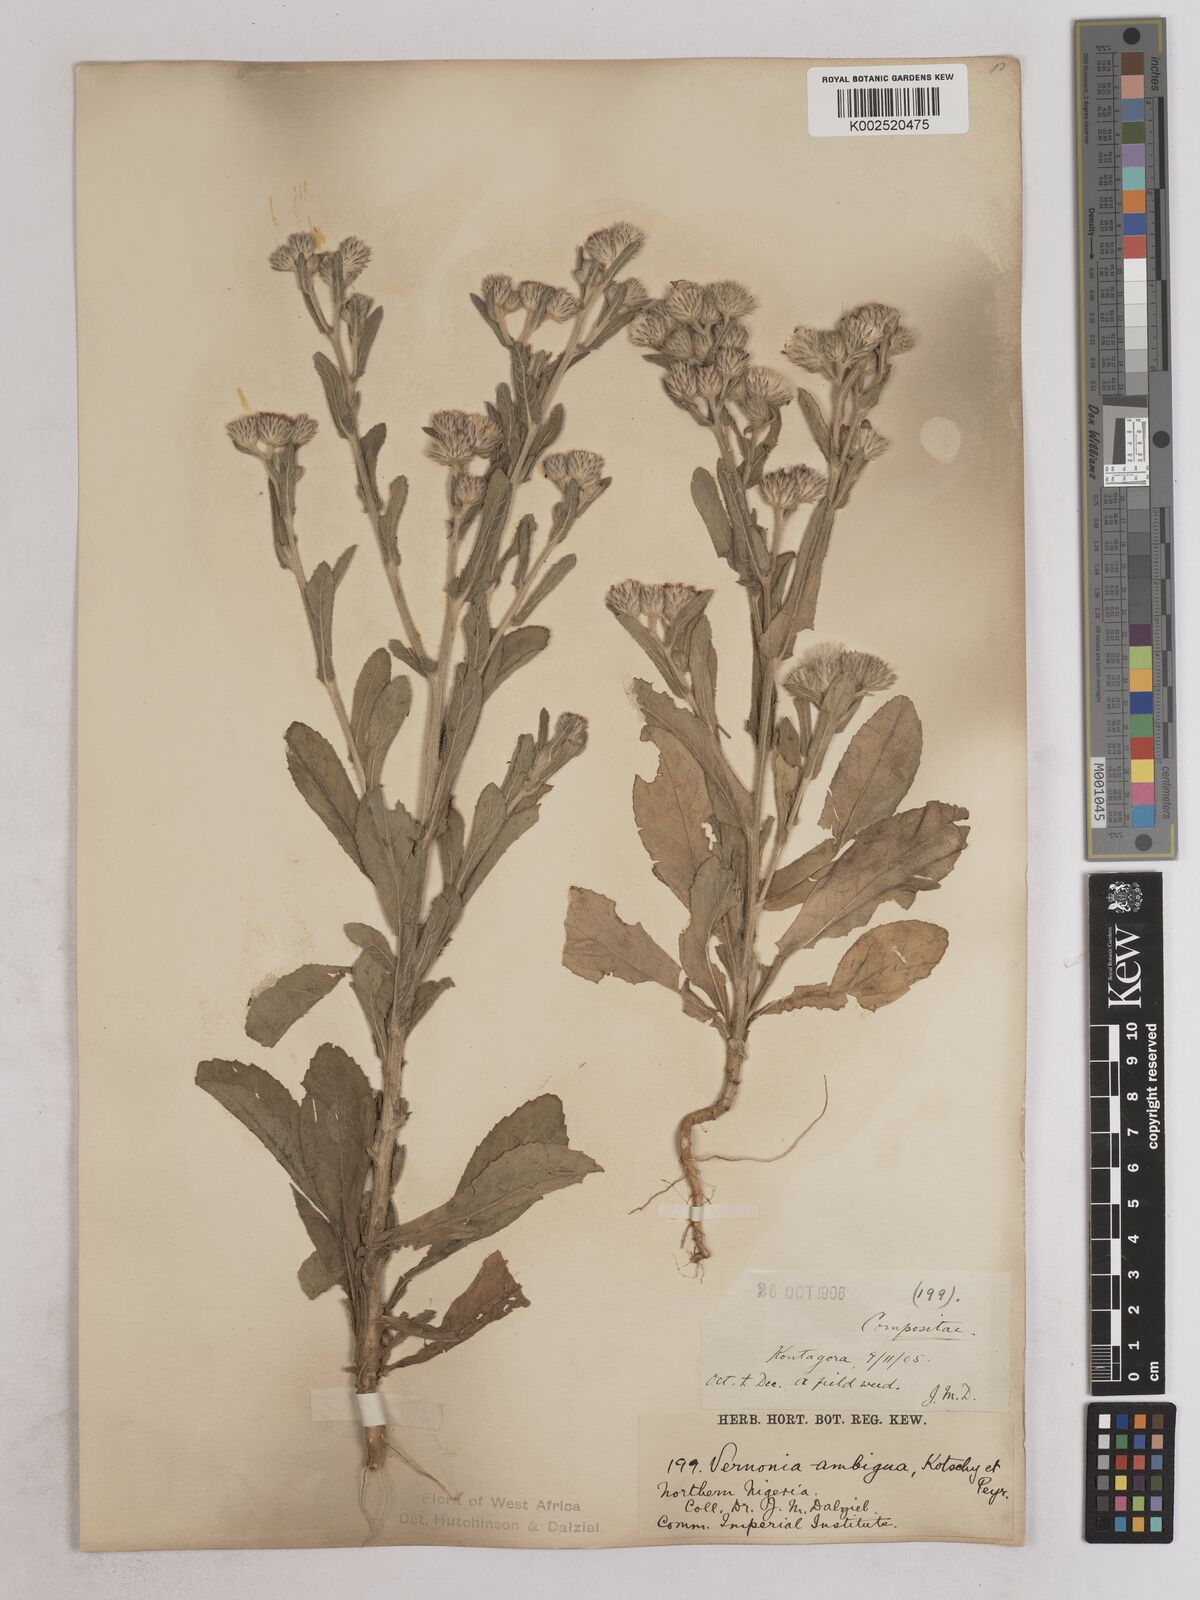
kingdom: Plantae
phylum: Tracheophyta
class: Magnoliopsida
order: Asterales
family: Asteraceae
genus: Vernoniastrum
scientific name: Vernoniastrum ambiguum
